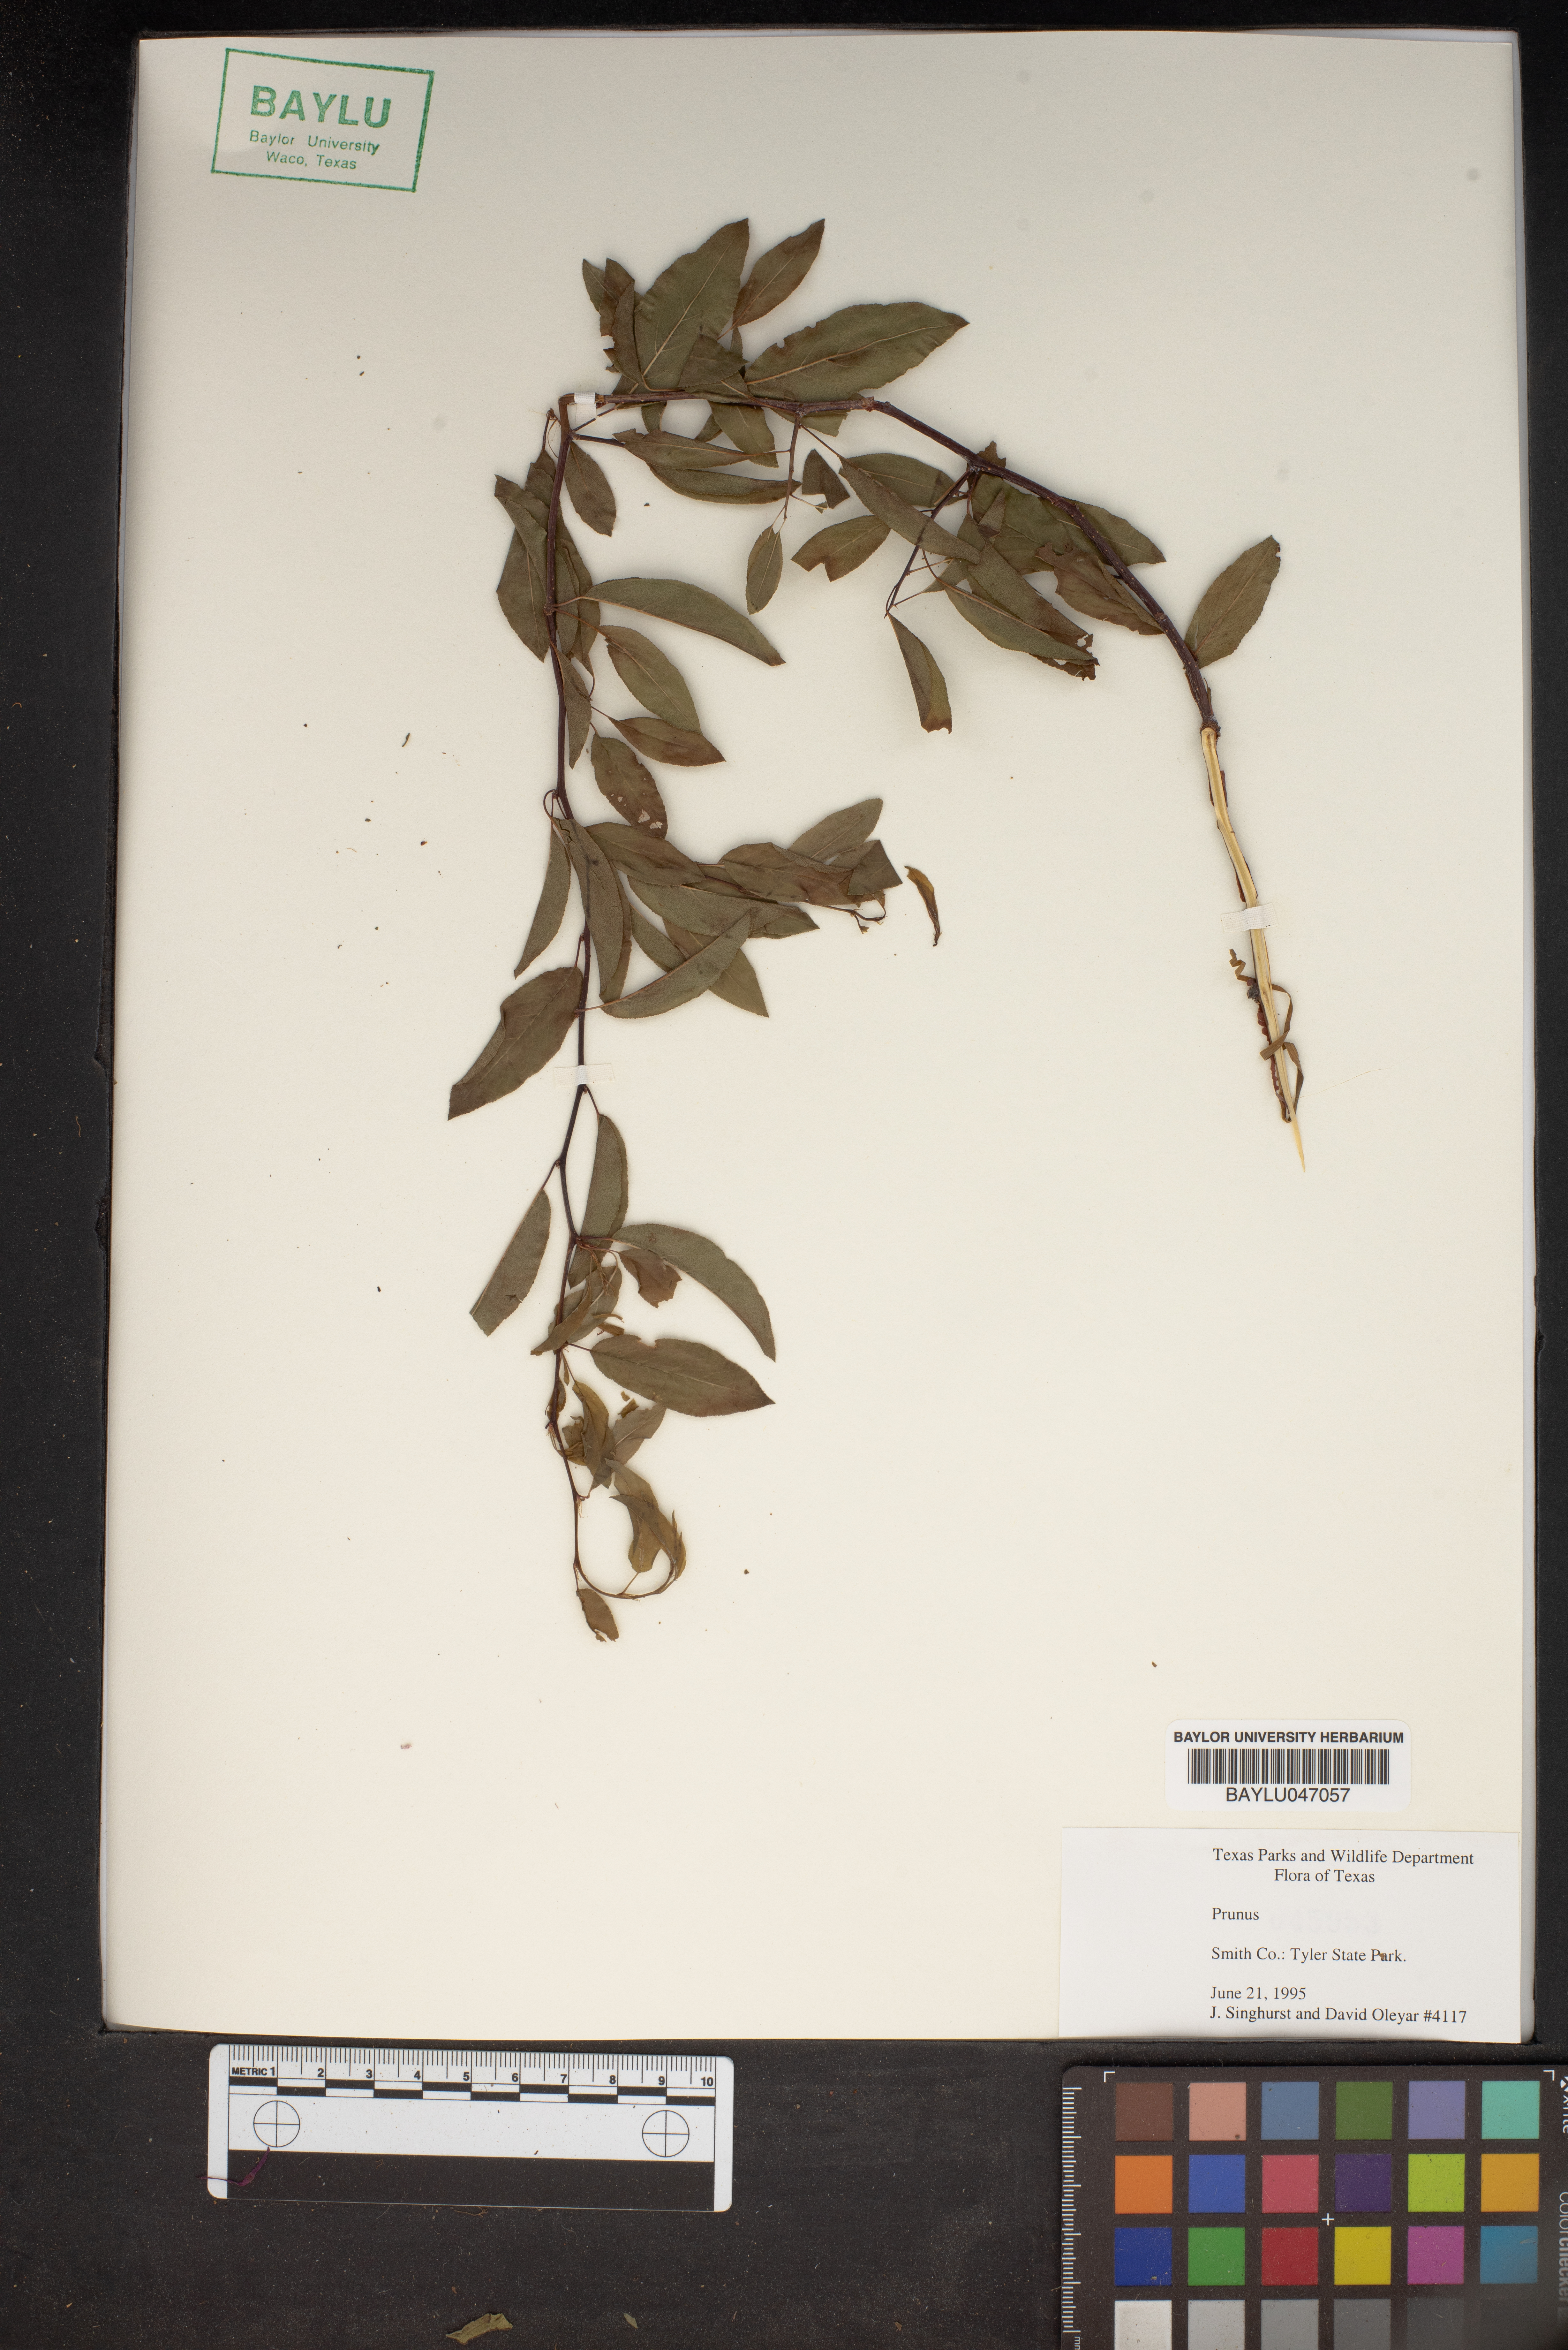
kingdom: Plantae
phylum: Tracheophyta
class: Magnoliopsida
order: Rosales
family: Rosaceae
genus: Prunus
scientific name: Prunus
